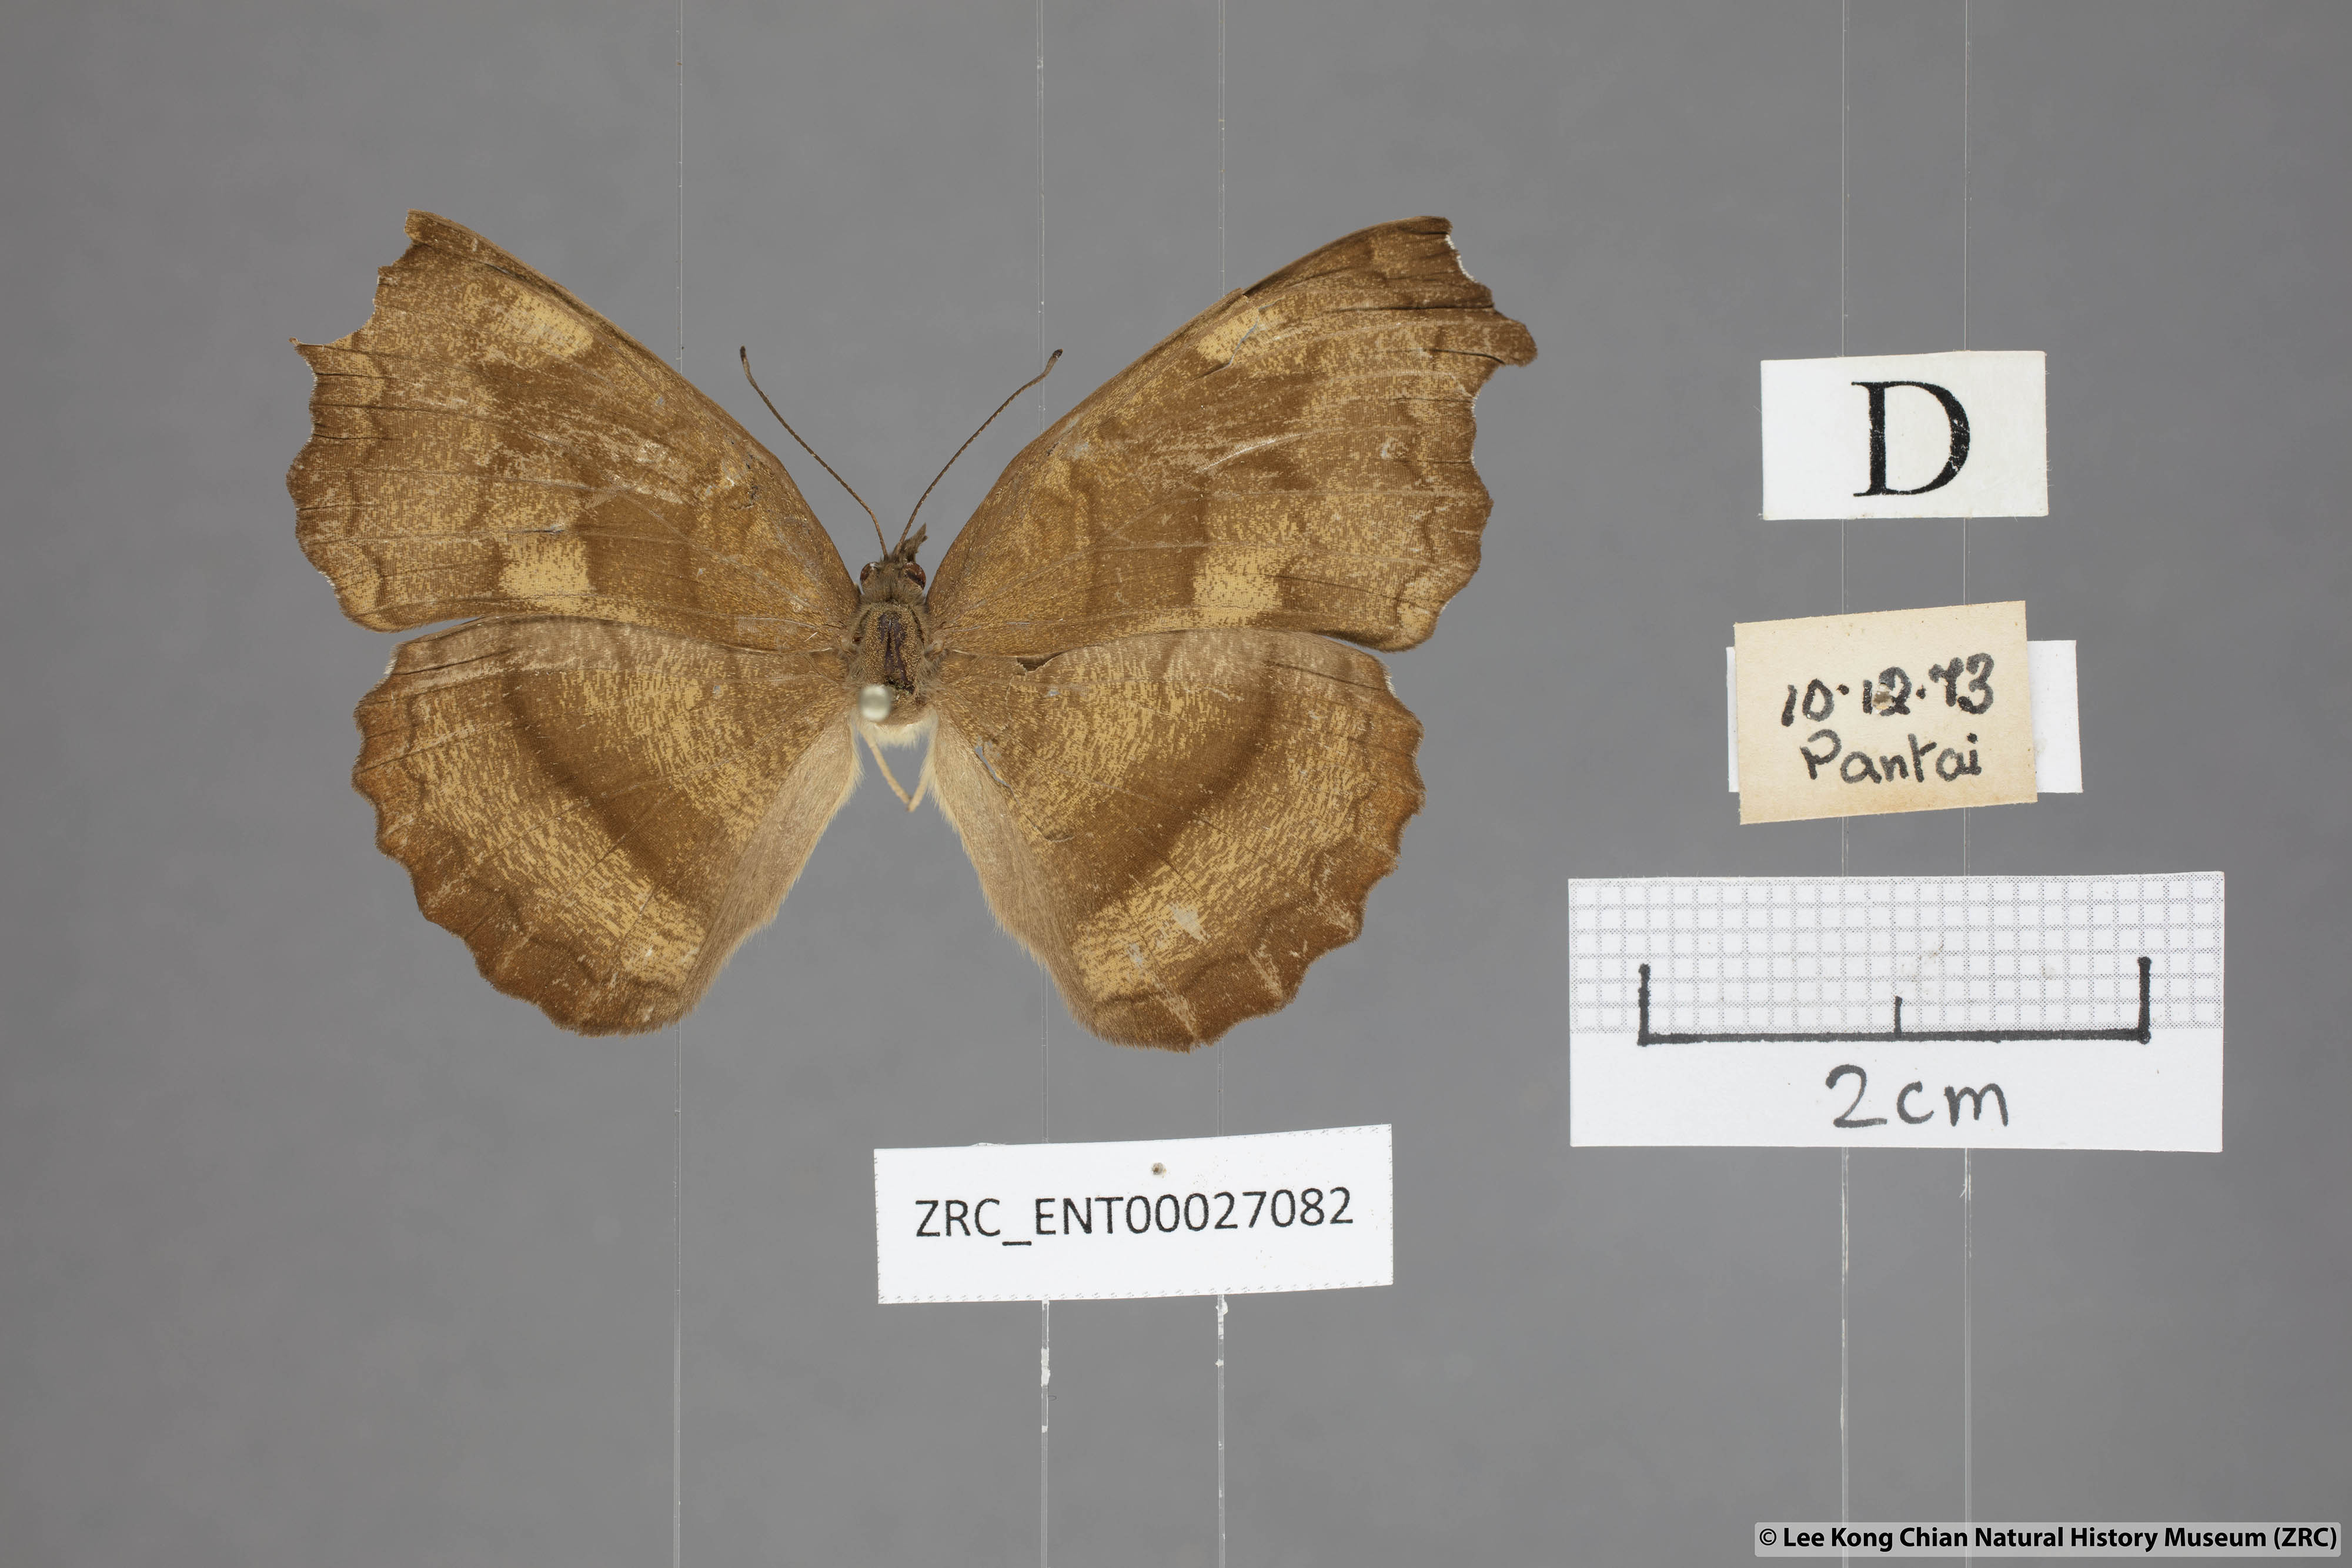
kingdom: Animalia
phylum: Arthropoda
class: Insecta
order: Lepidoptera
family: Nymphalidae
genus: Laringa
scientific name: Laringa castelnaui
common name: Blue dandy
